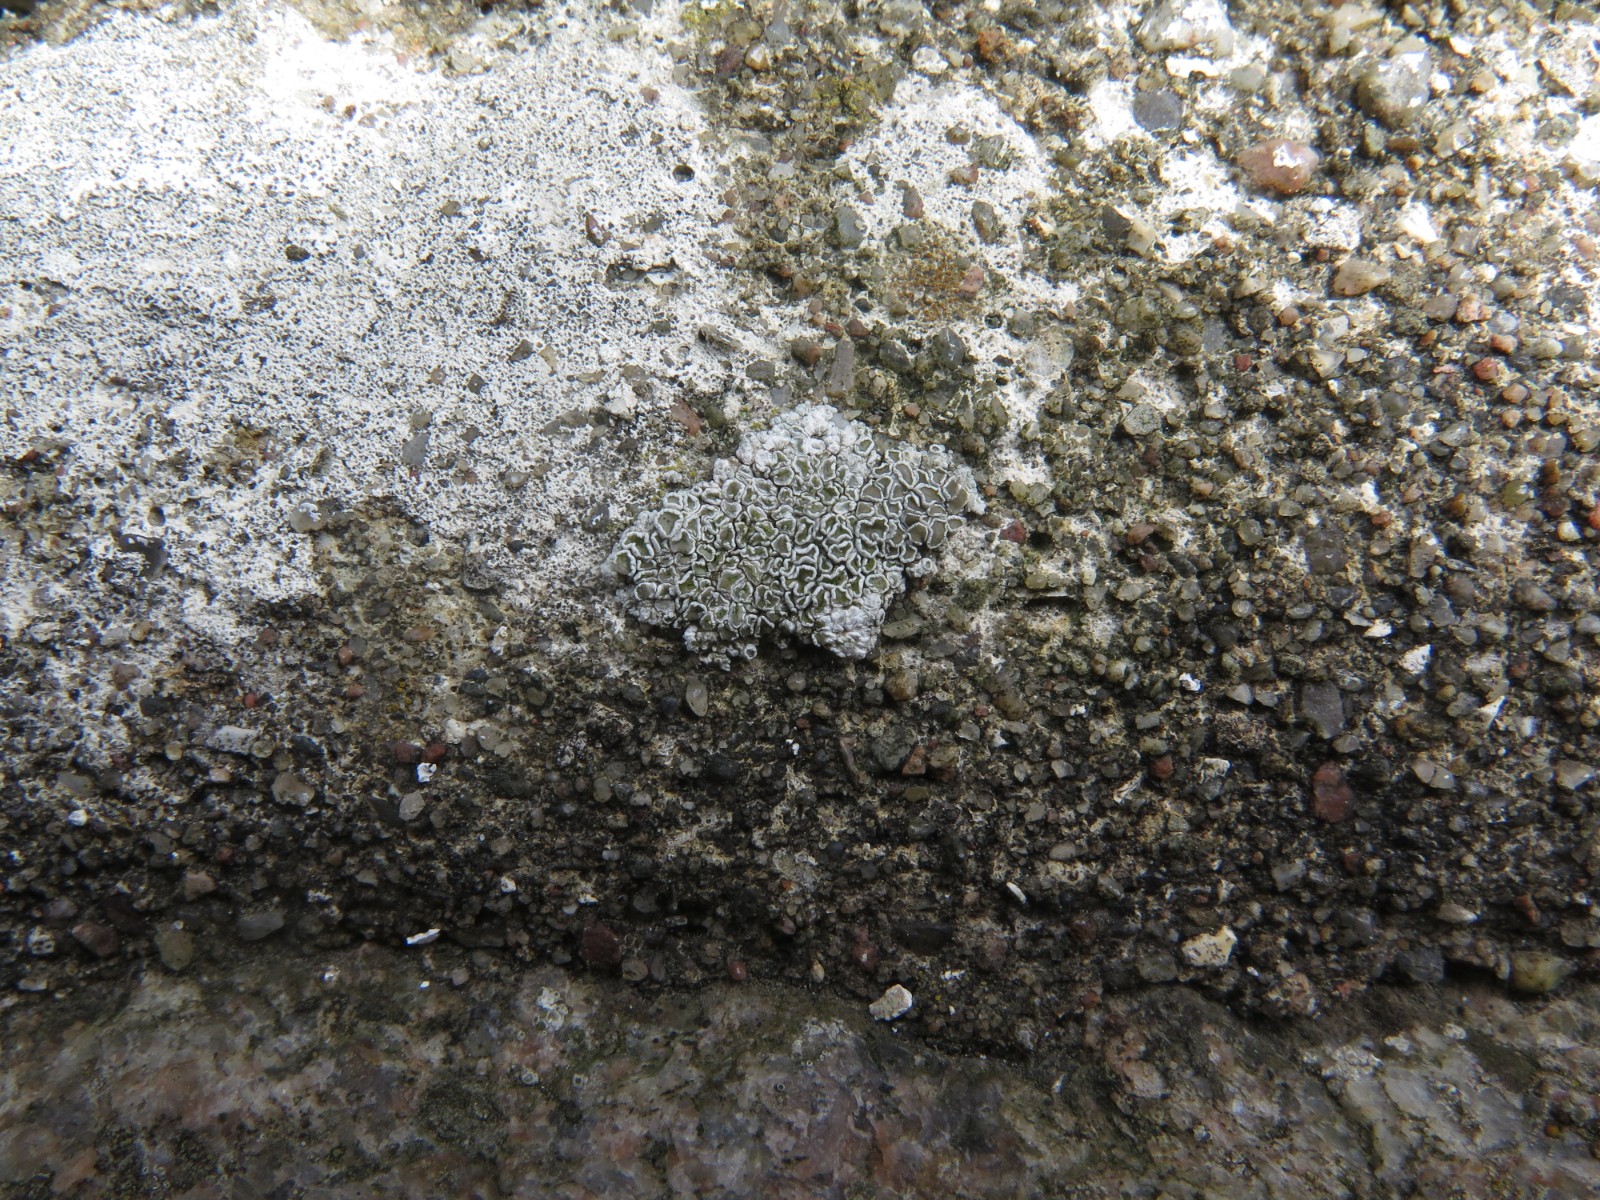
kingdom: Fungi
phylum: Ascomycota
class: Lecanoromycetes
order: Lecanorales
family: Lecanoraceae
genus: Polyozosia
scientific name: Polyozosia albescens
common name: cement-kantskivelav
